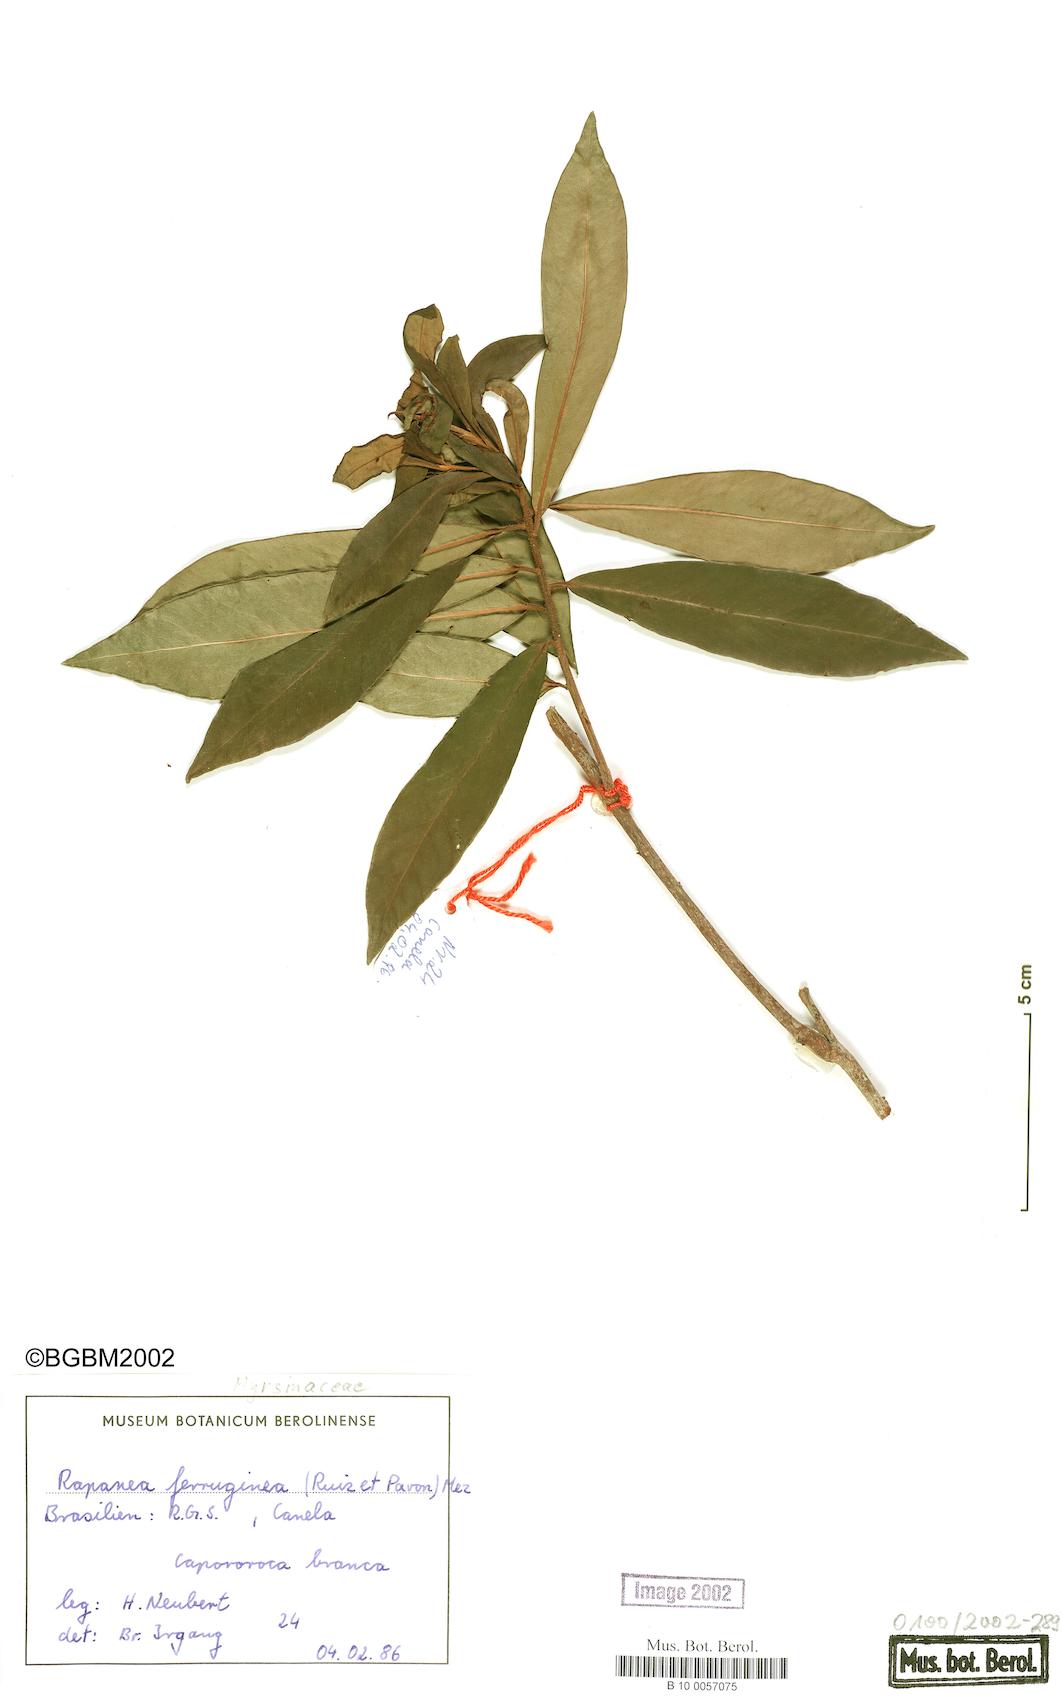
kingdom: Plantae
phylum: Tracheophyta
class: Magnoliopsida
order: Ericales
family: Primulaceae
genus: Myrsine
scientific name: Myrsine coriacea
